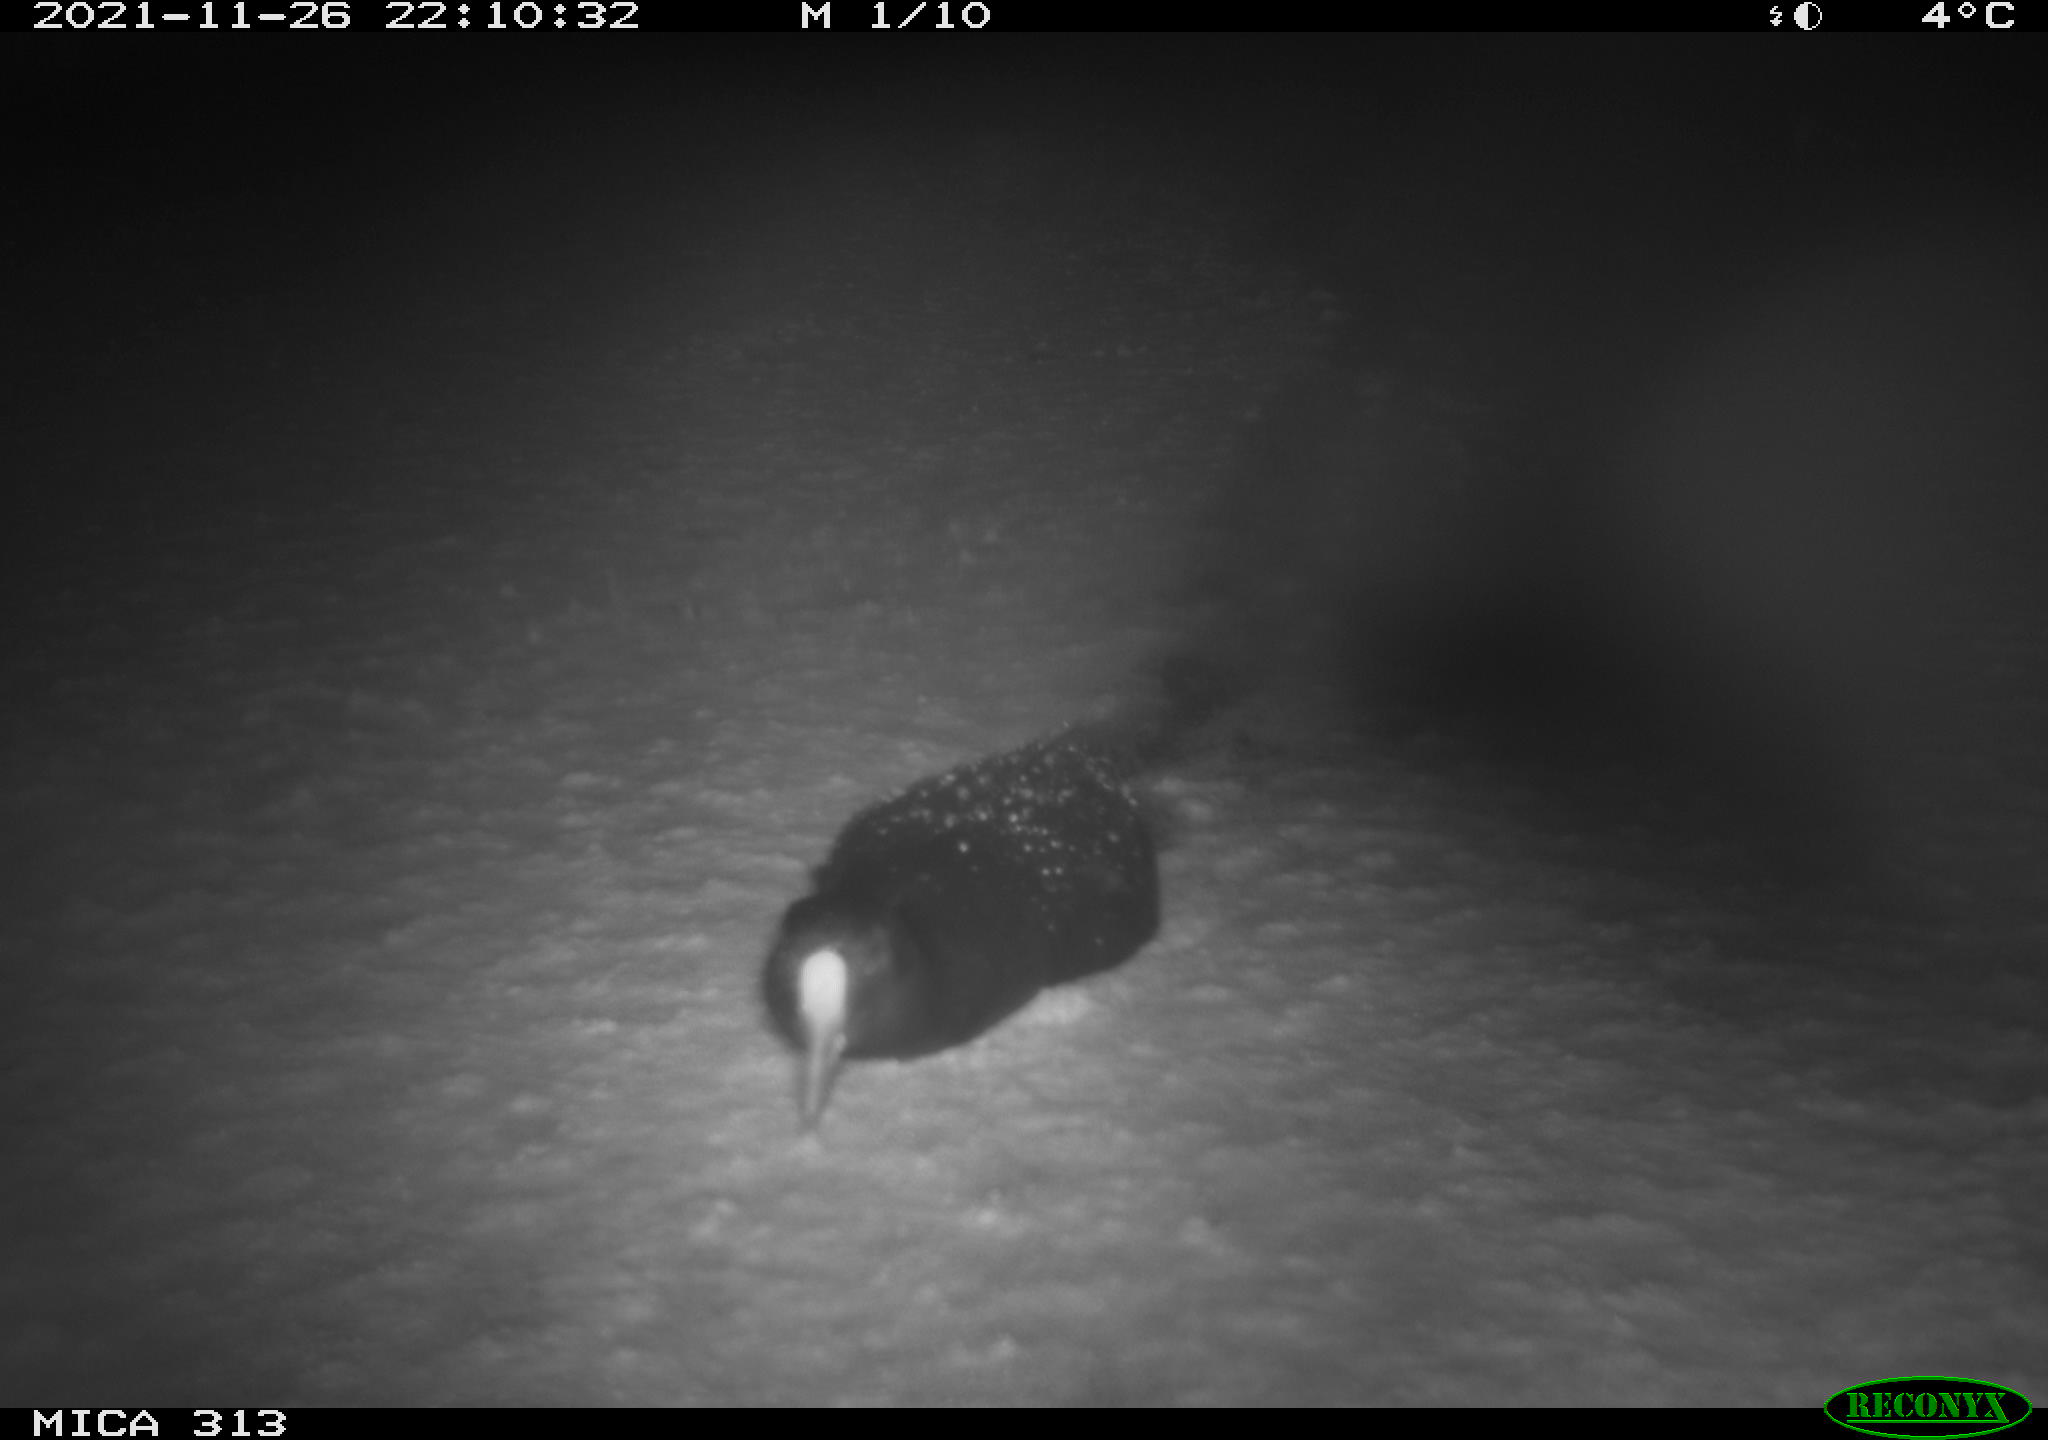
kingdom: Animalia
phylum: Chordata
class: Aves
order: Gruiformes
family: Rallidae
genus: Gallinula
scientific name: Gallinula chloropus
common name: Common moorhen
